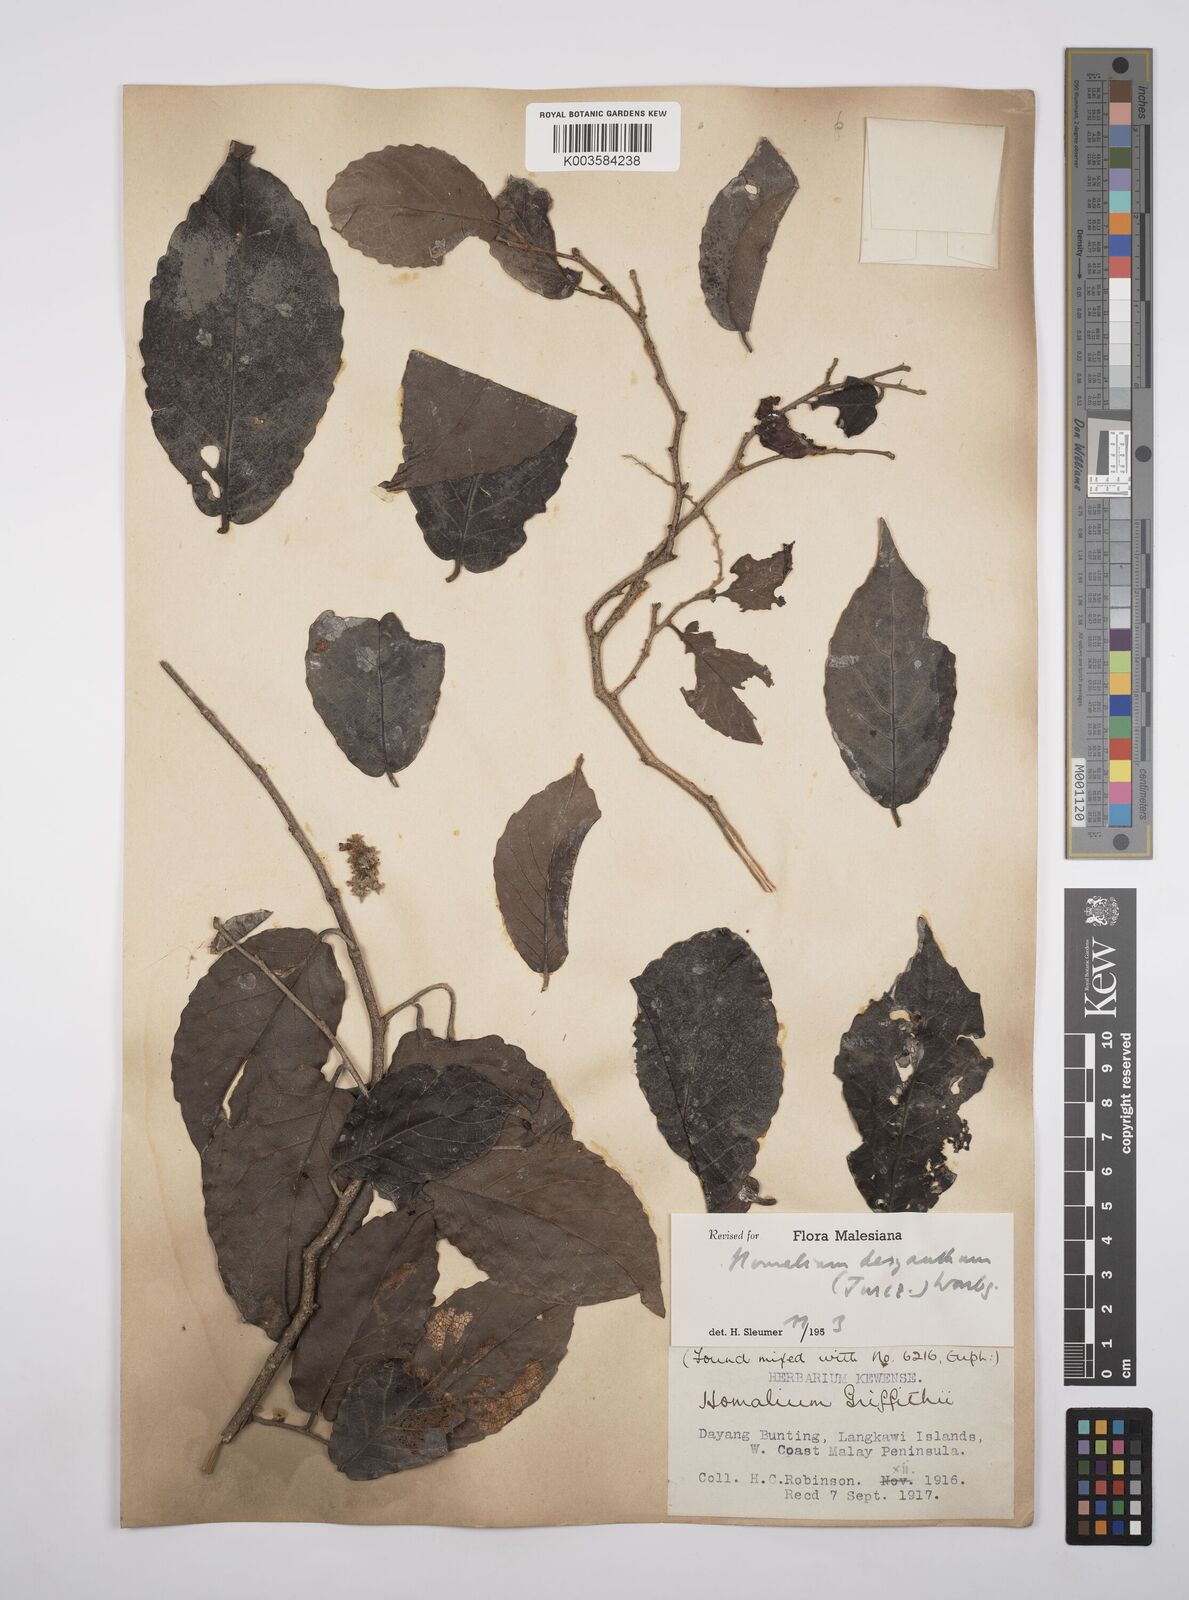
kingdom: Plantae
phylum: Tracheophyta
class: Magnoliopsida
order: Malpighiales
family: Salicaceae
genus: Homalium
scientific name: Homalium dasyanthum
